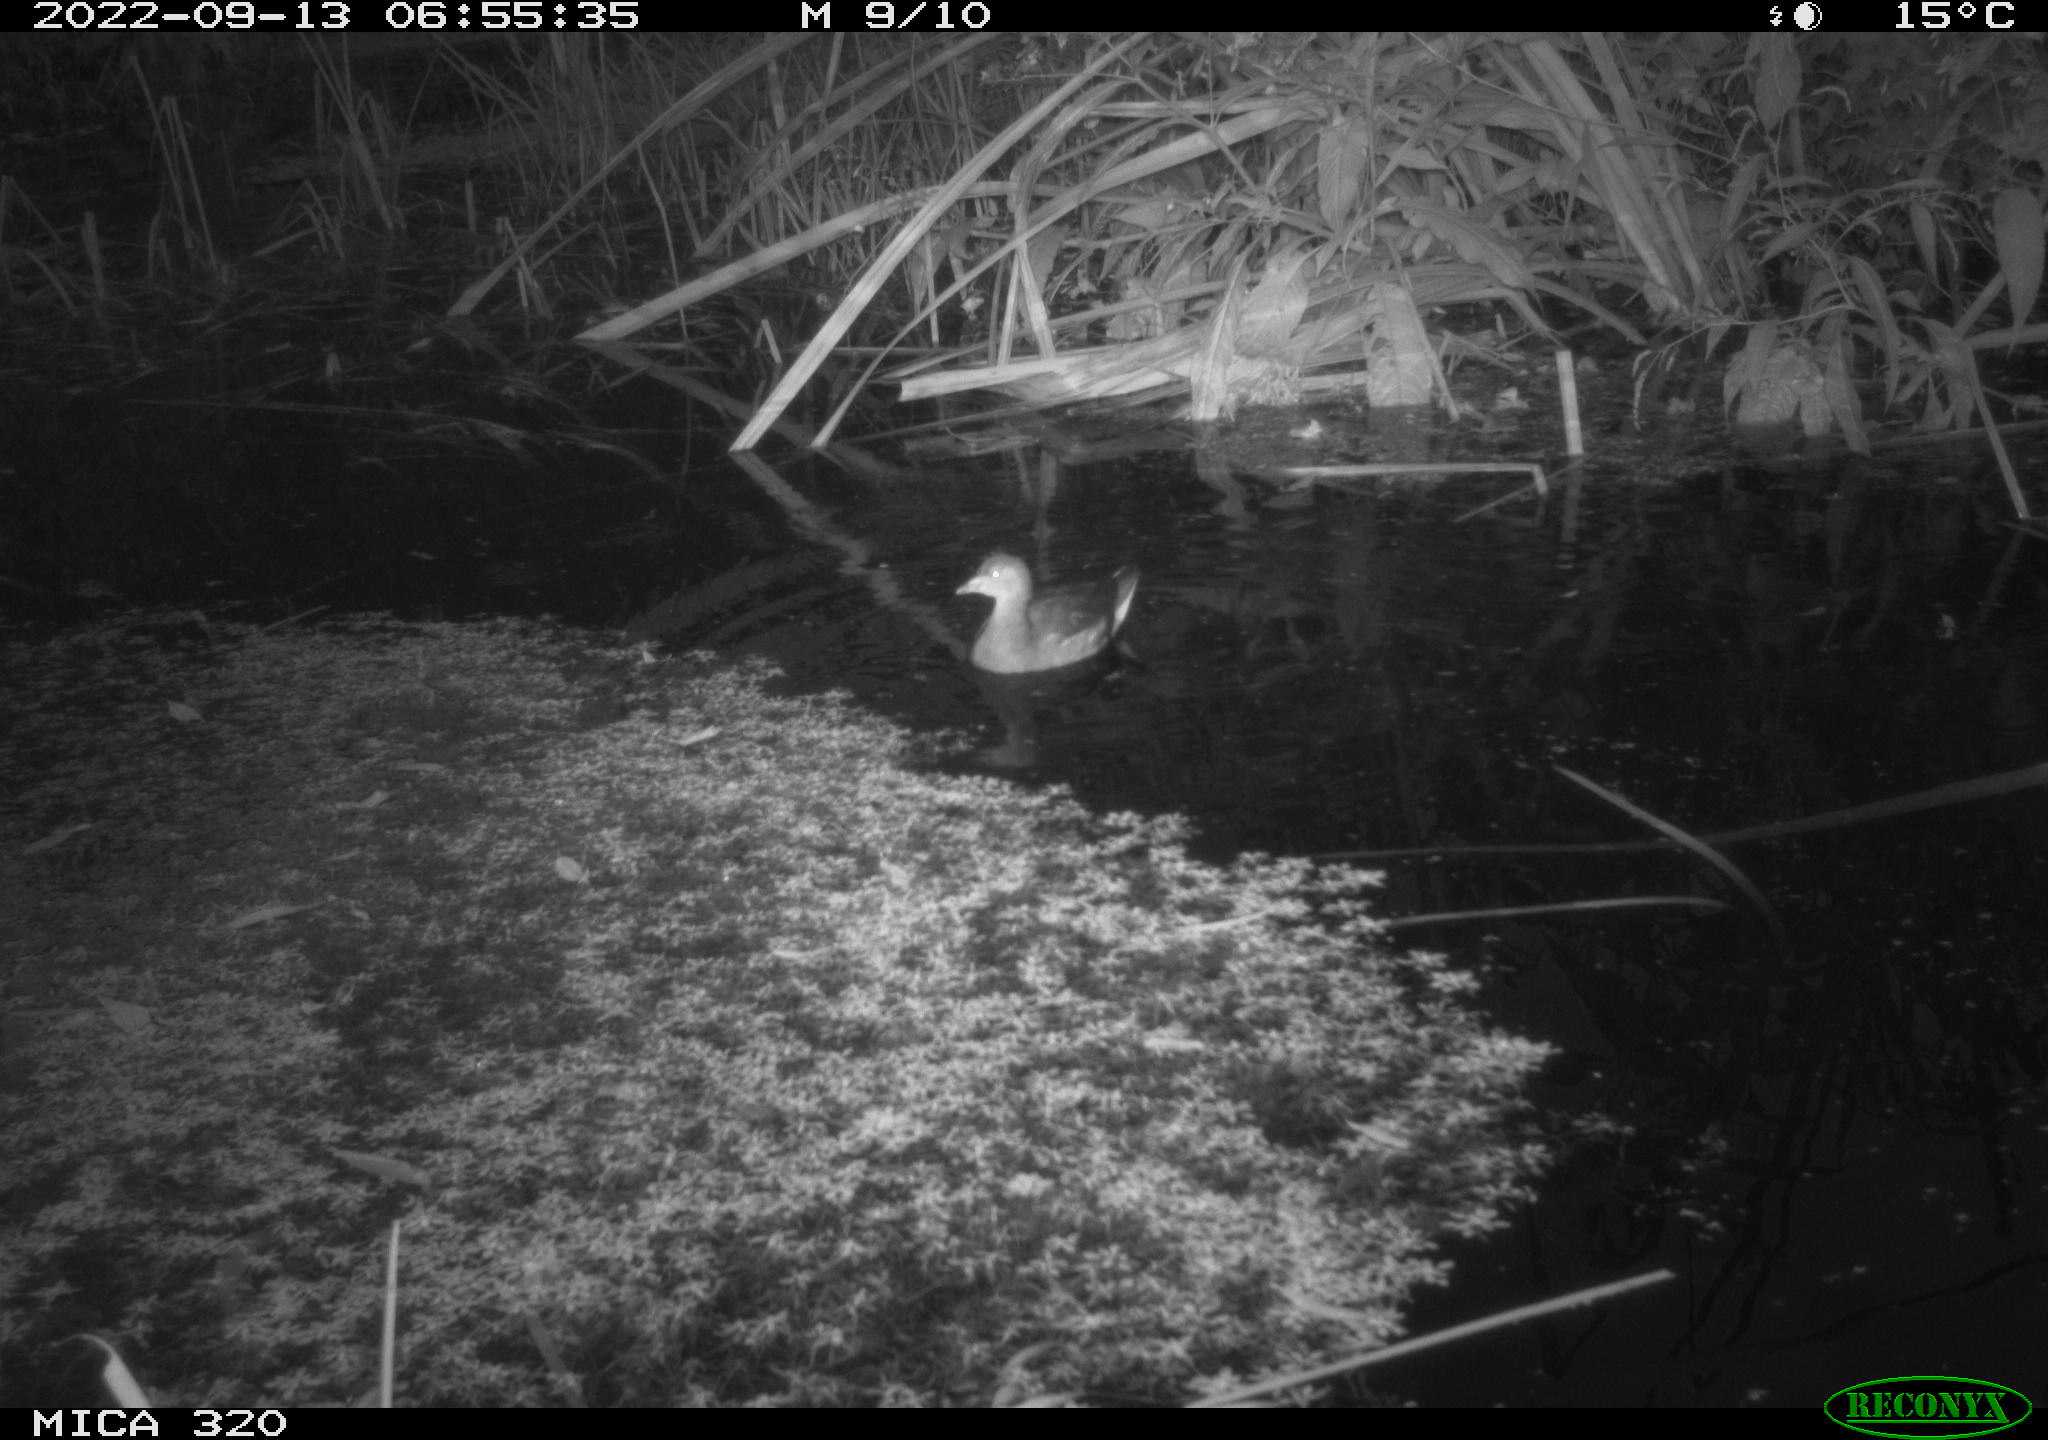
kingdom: Animalia
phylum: Chordata
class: Aves
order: Gruiformes
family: Rallidae
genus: Gallinula
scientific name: Gallinula chloropus
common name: Common moorhen
